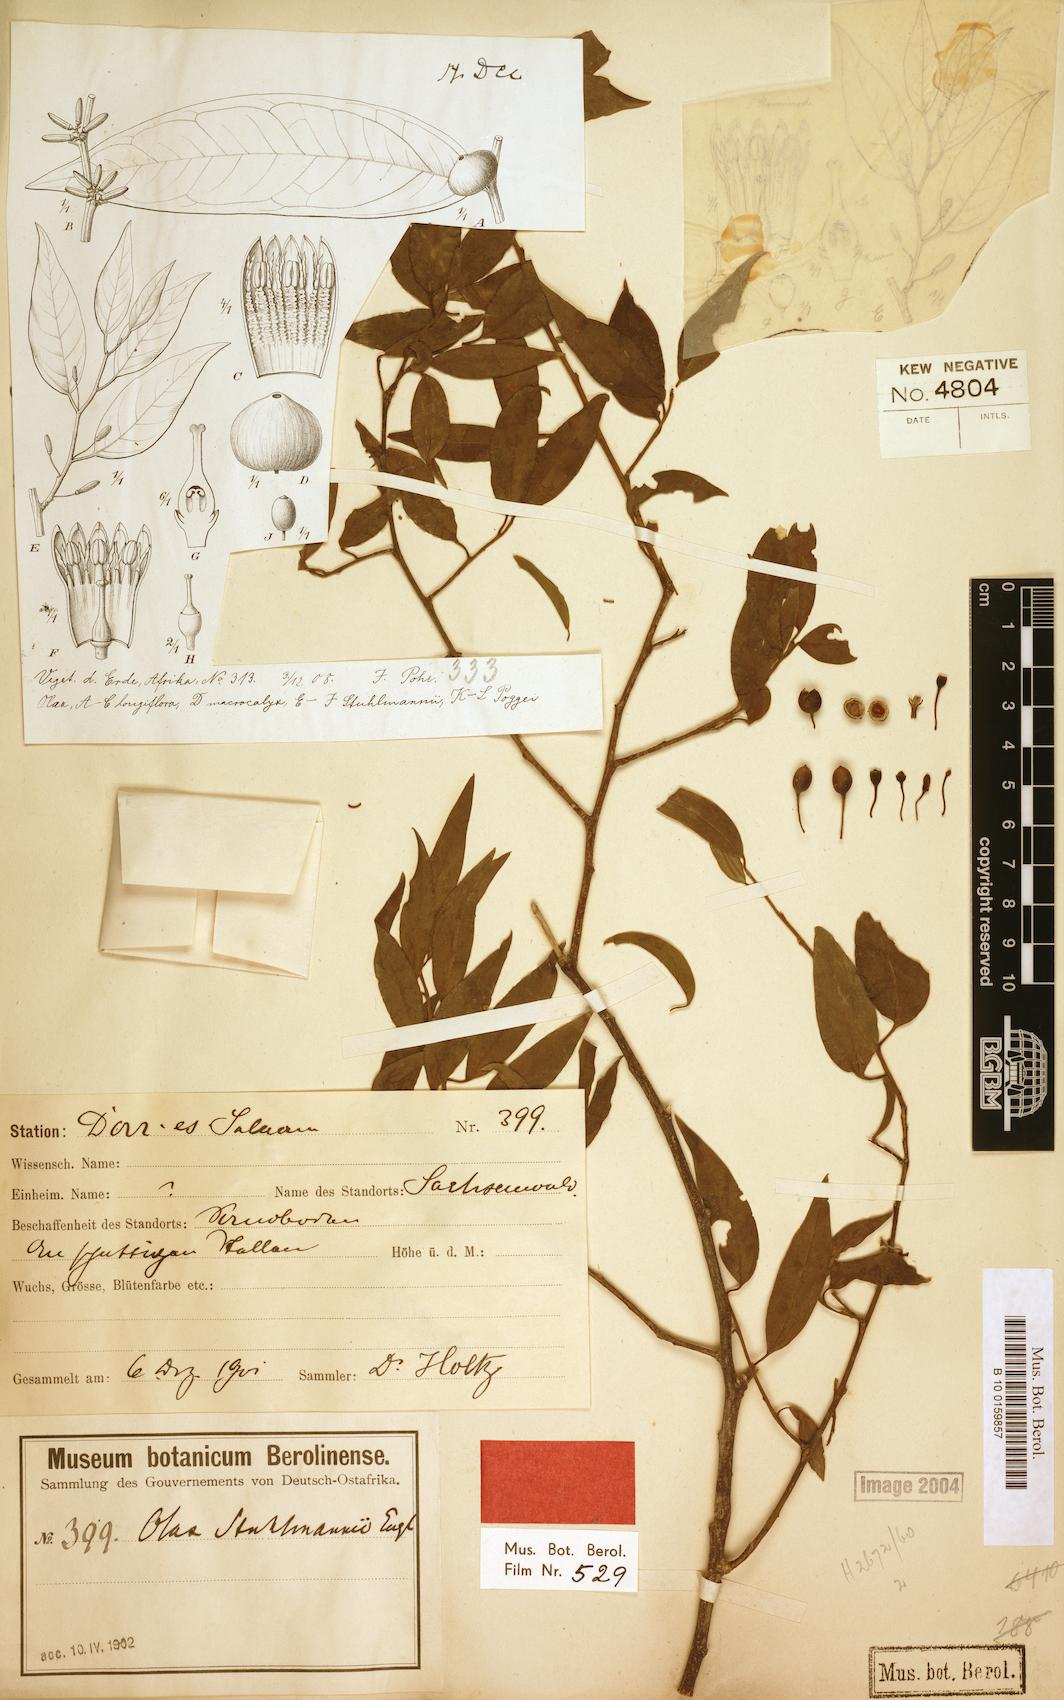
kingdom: Plantae
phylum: Tracheophyta
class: Magnoliopsida
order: Santalales
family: Olacaceae
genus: Olax
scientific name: Olax obtusifolia
